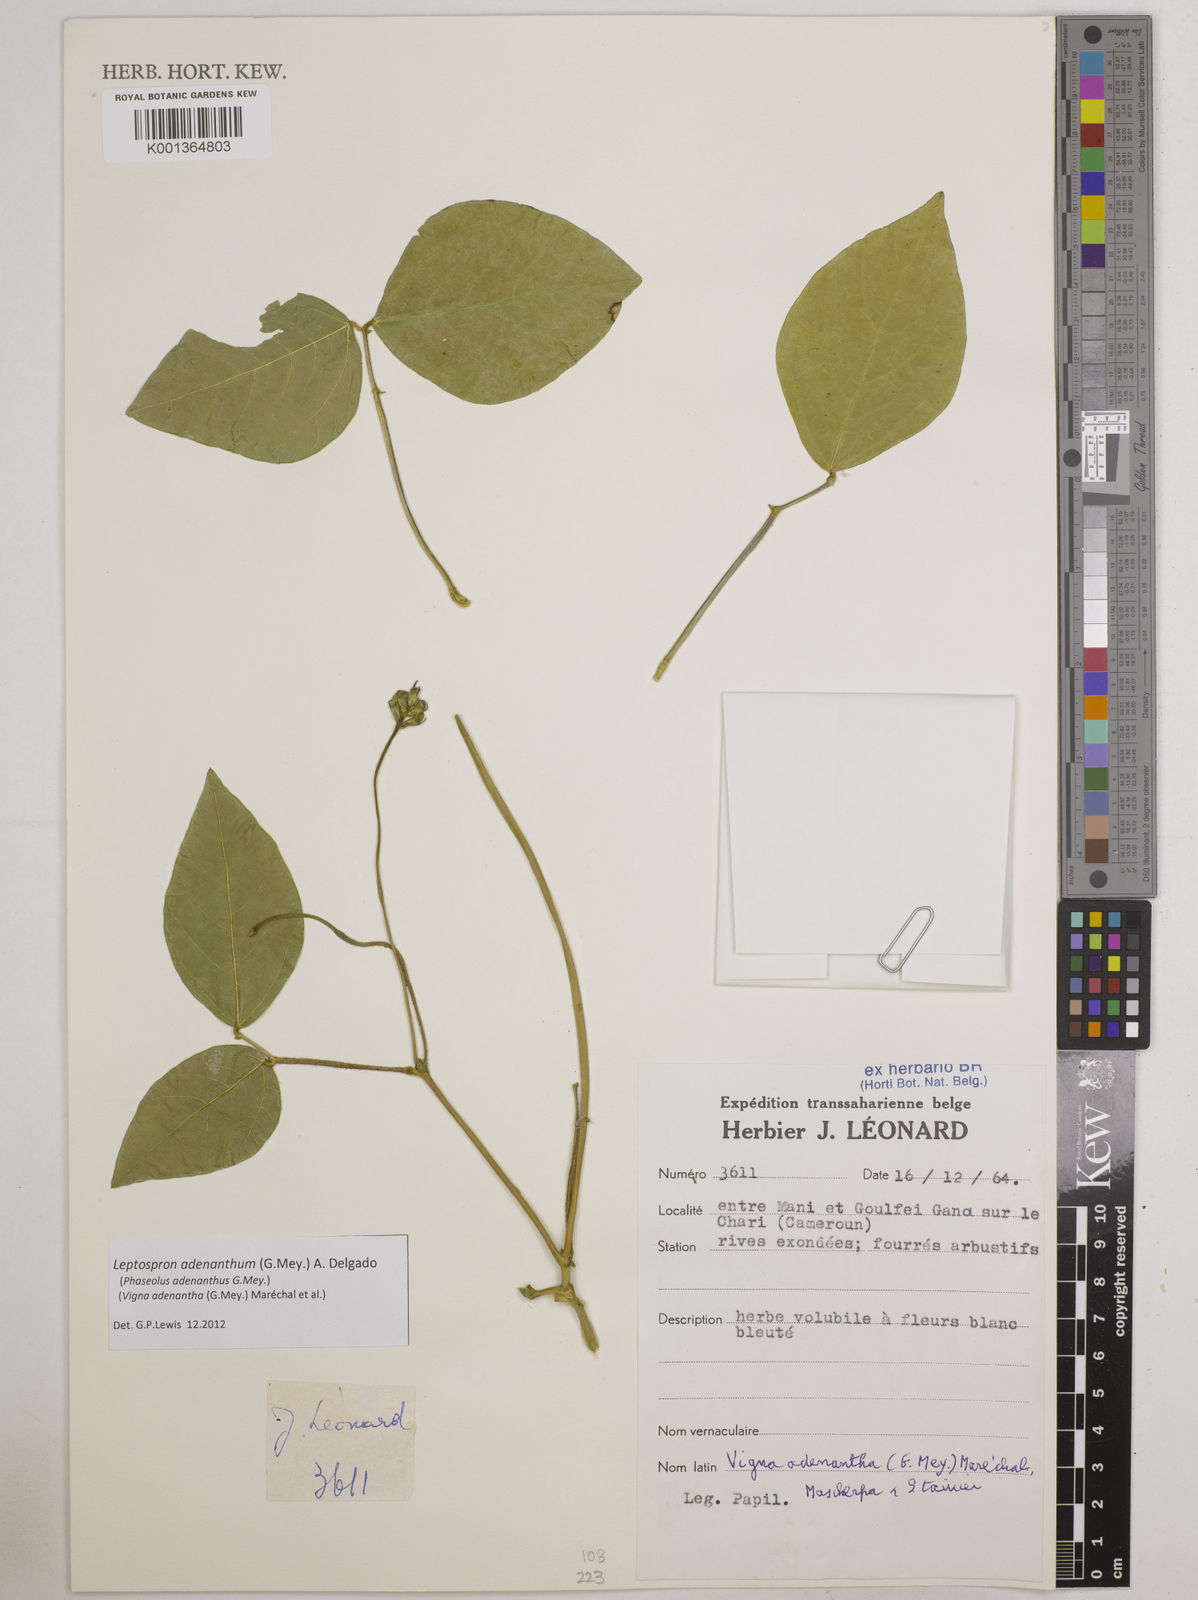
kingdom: Plantae
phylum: Tracheophyta
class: Magnoliopsida
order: Fabales
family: Fabaceae
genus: Leptospron
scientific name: Leptospron adenanthum
